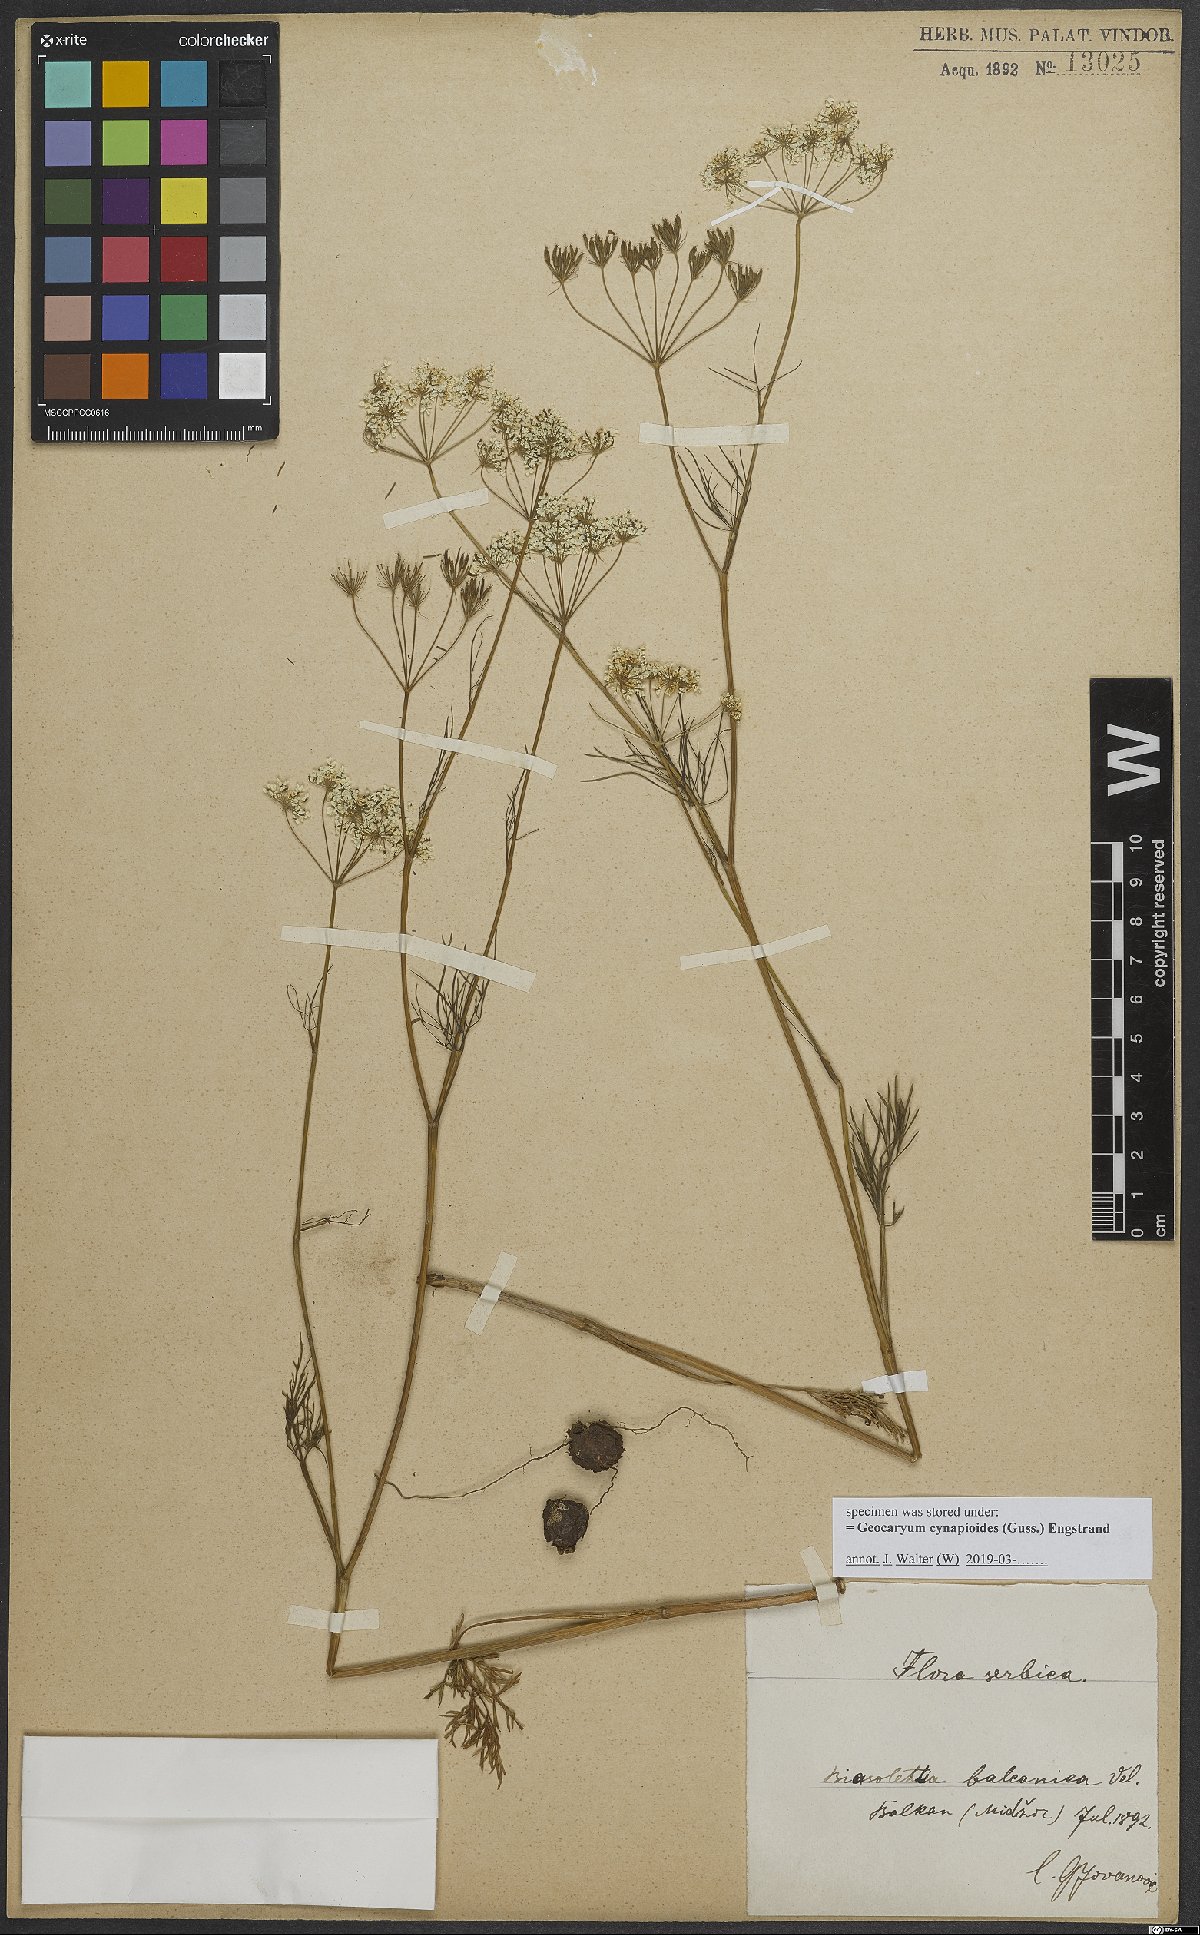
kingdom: Plantae
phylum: Tracheophyta
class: Magnoliopsida
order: Apiales
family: Apiaceae
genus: Geocaryum
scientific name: Geocaryum cynapioides
